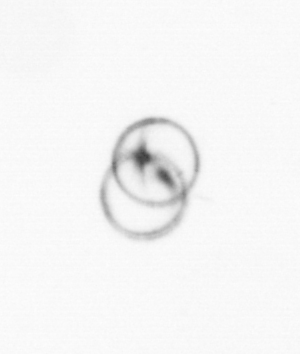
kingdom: Chromista
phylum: Myzozoa
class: Dinophyceae
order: Noctilucales
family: Noctilucaceae
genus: Noctiluca
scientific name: Noctiluca scintillans
